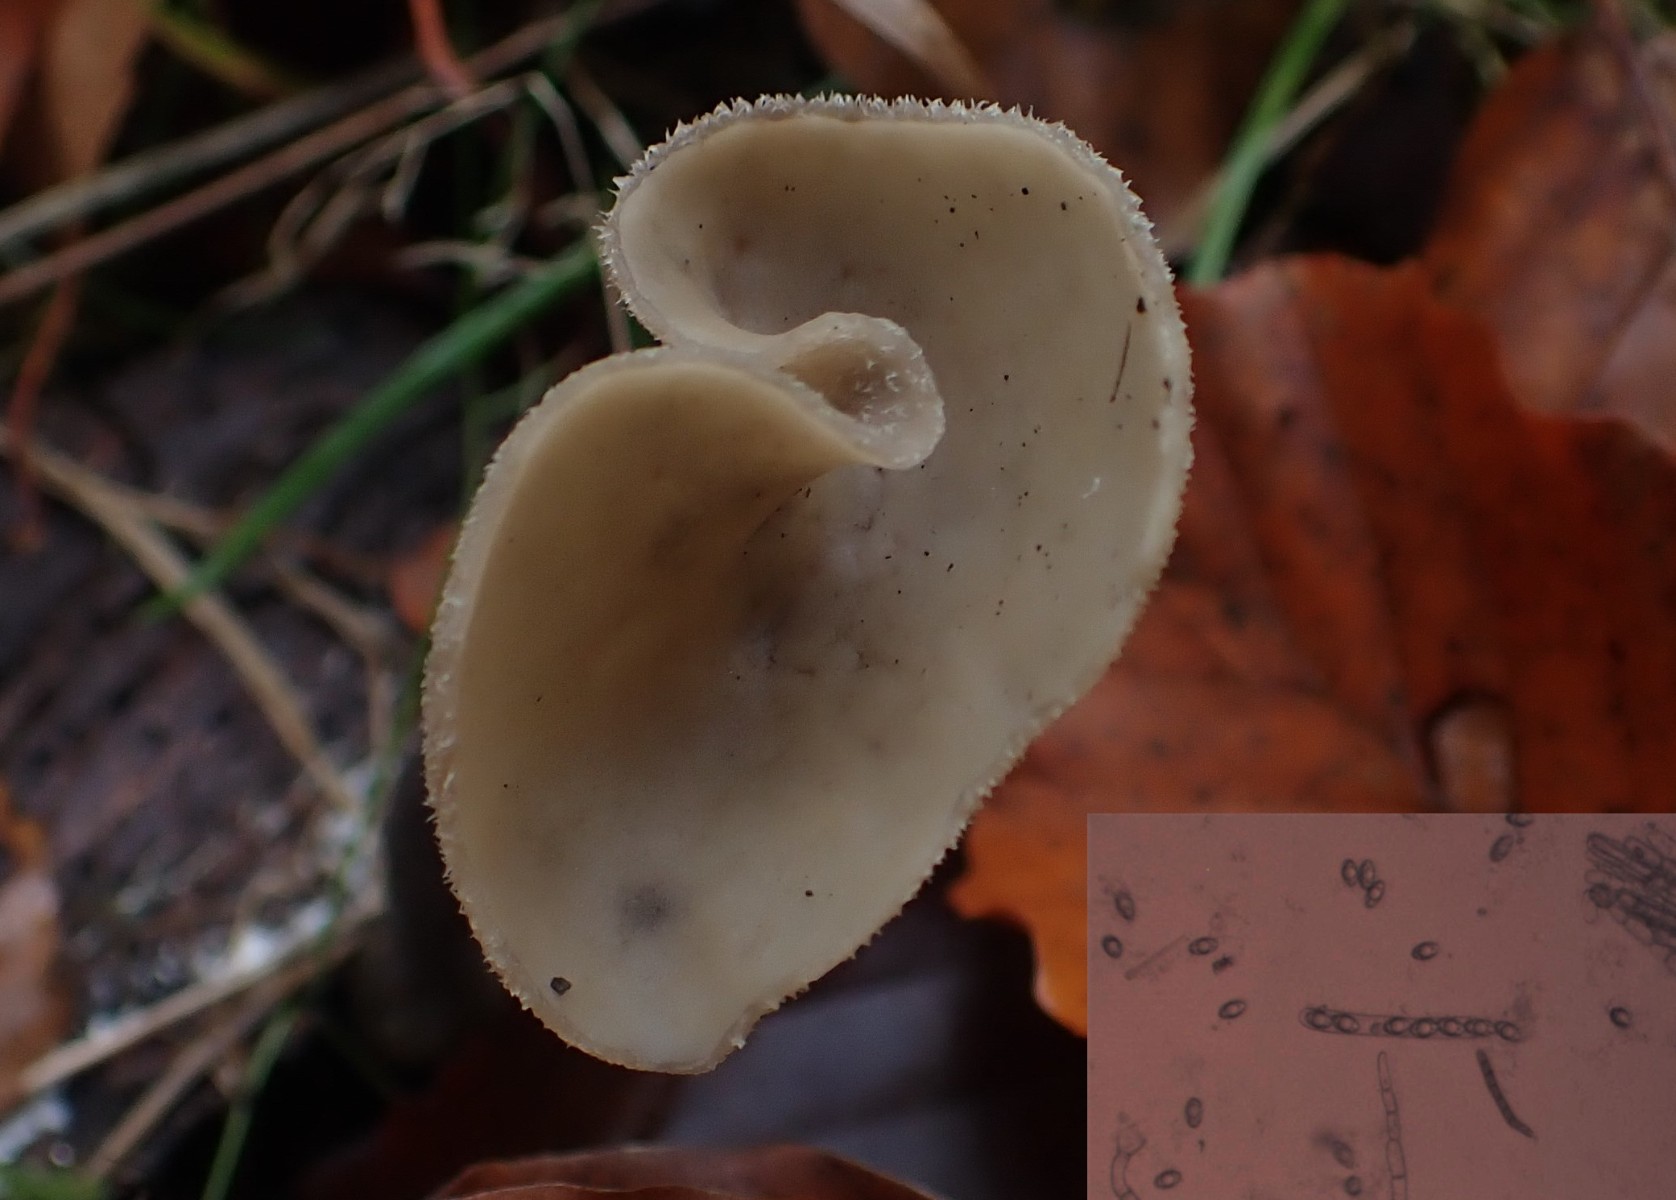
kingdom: Fungi
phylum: Ascomycota
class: Pezizomycetes
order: Pezizales
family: Helvellaceae
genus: Helvella
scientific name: Helvella macropus
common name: højstokket foldhat
